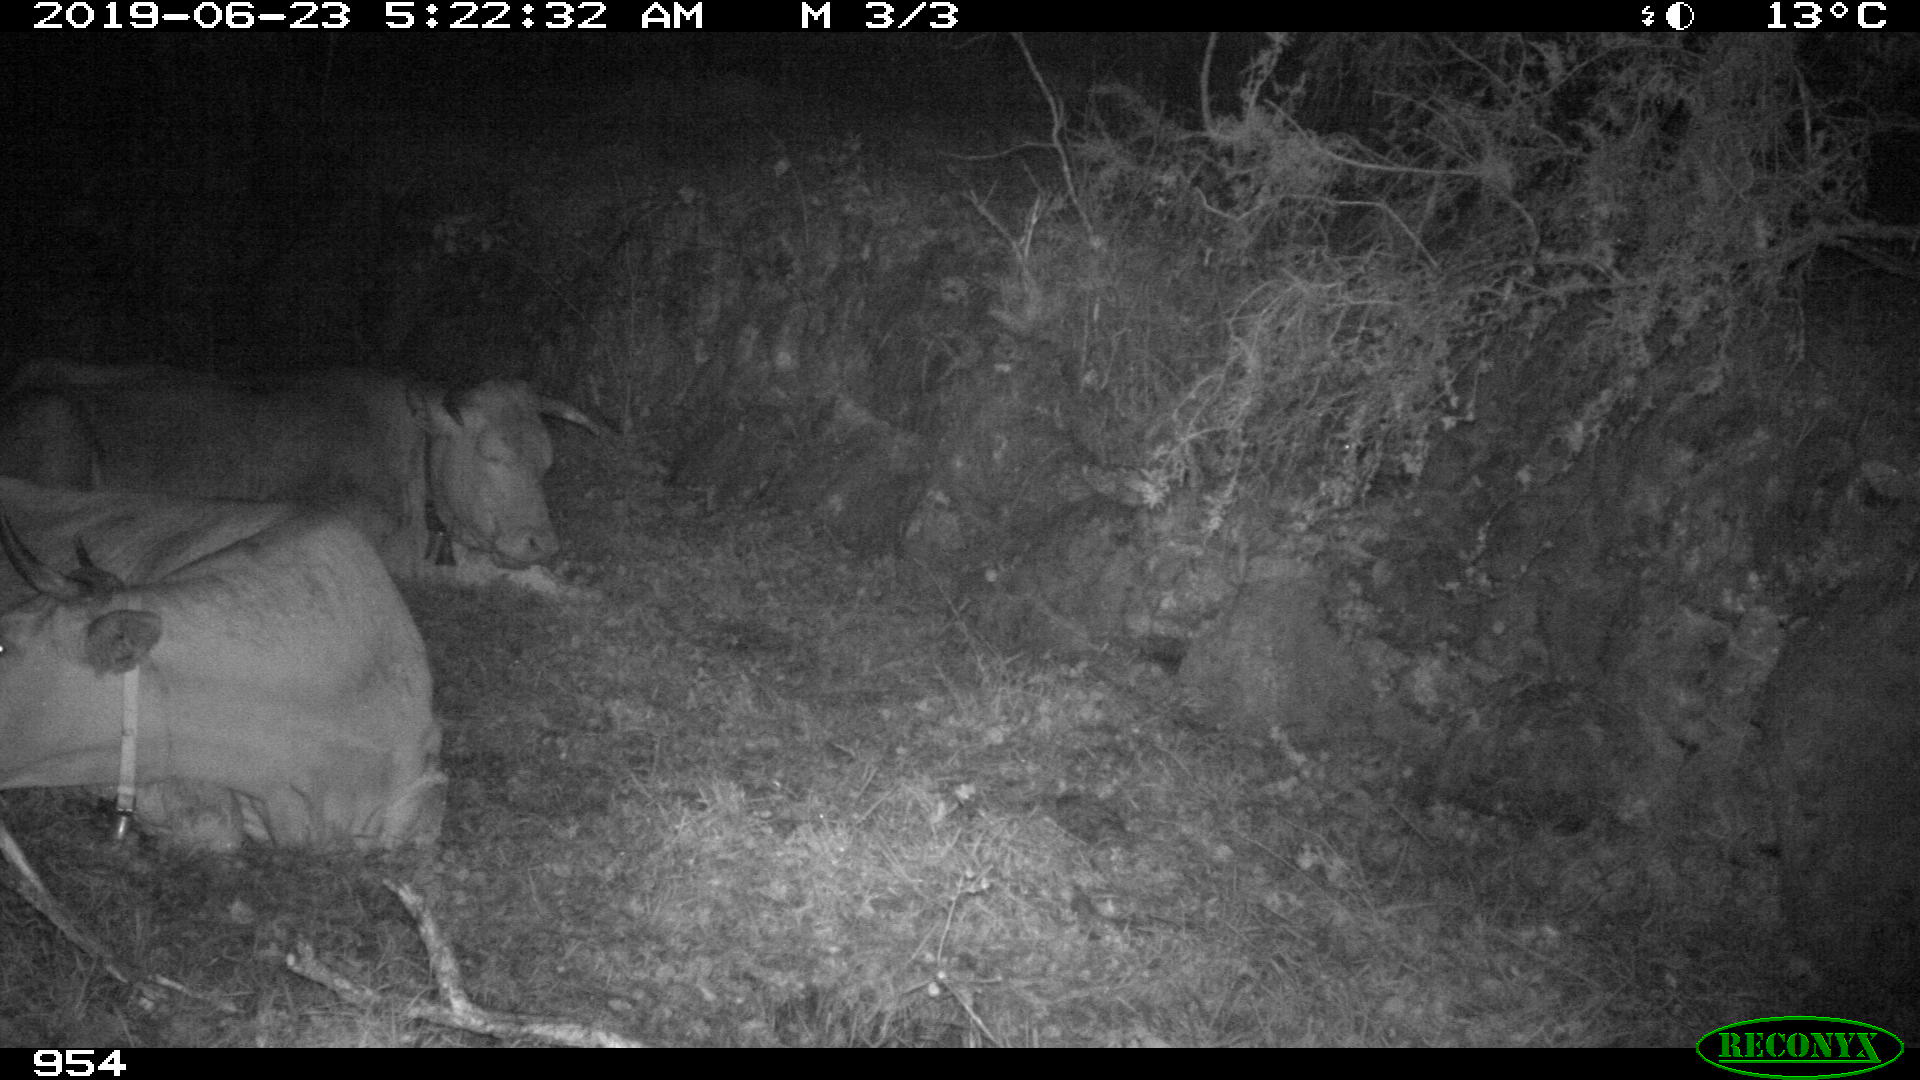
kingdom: Animalia
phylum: Chordata
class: Mammalia
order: Artiodactyla
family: Bovidae
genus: Bos
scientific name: Bos taurus
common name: Domesticated cattle
